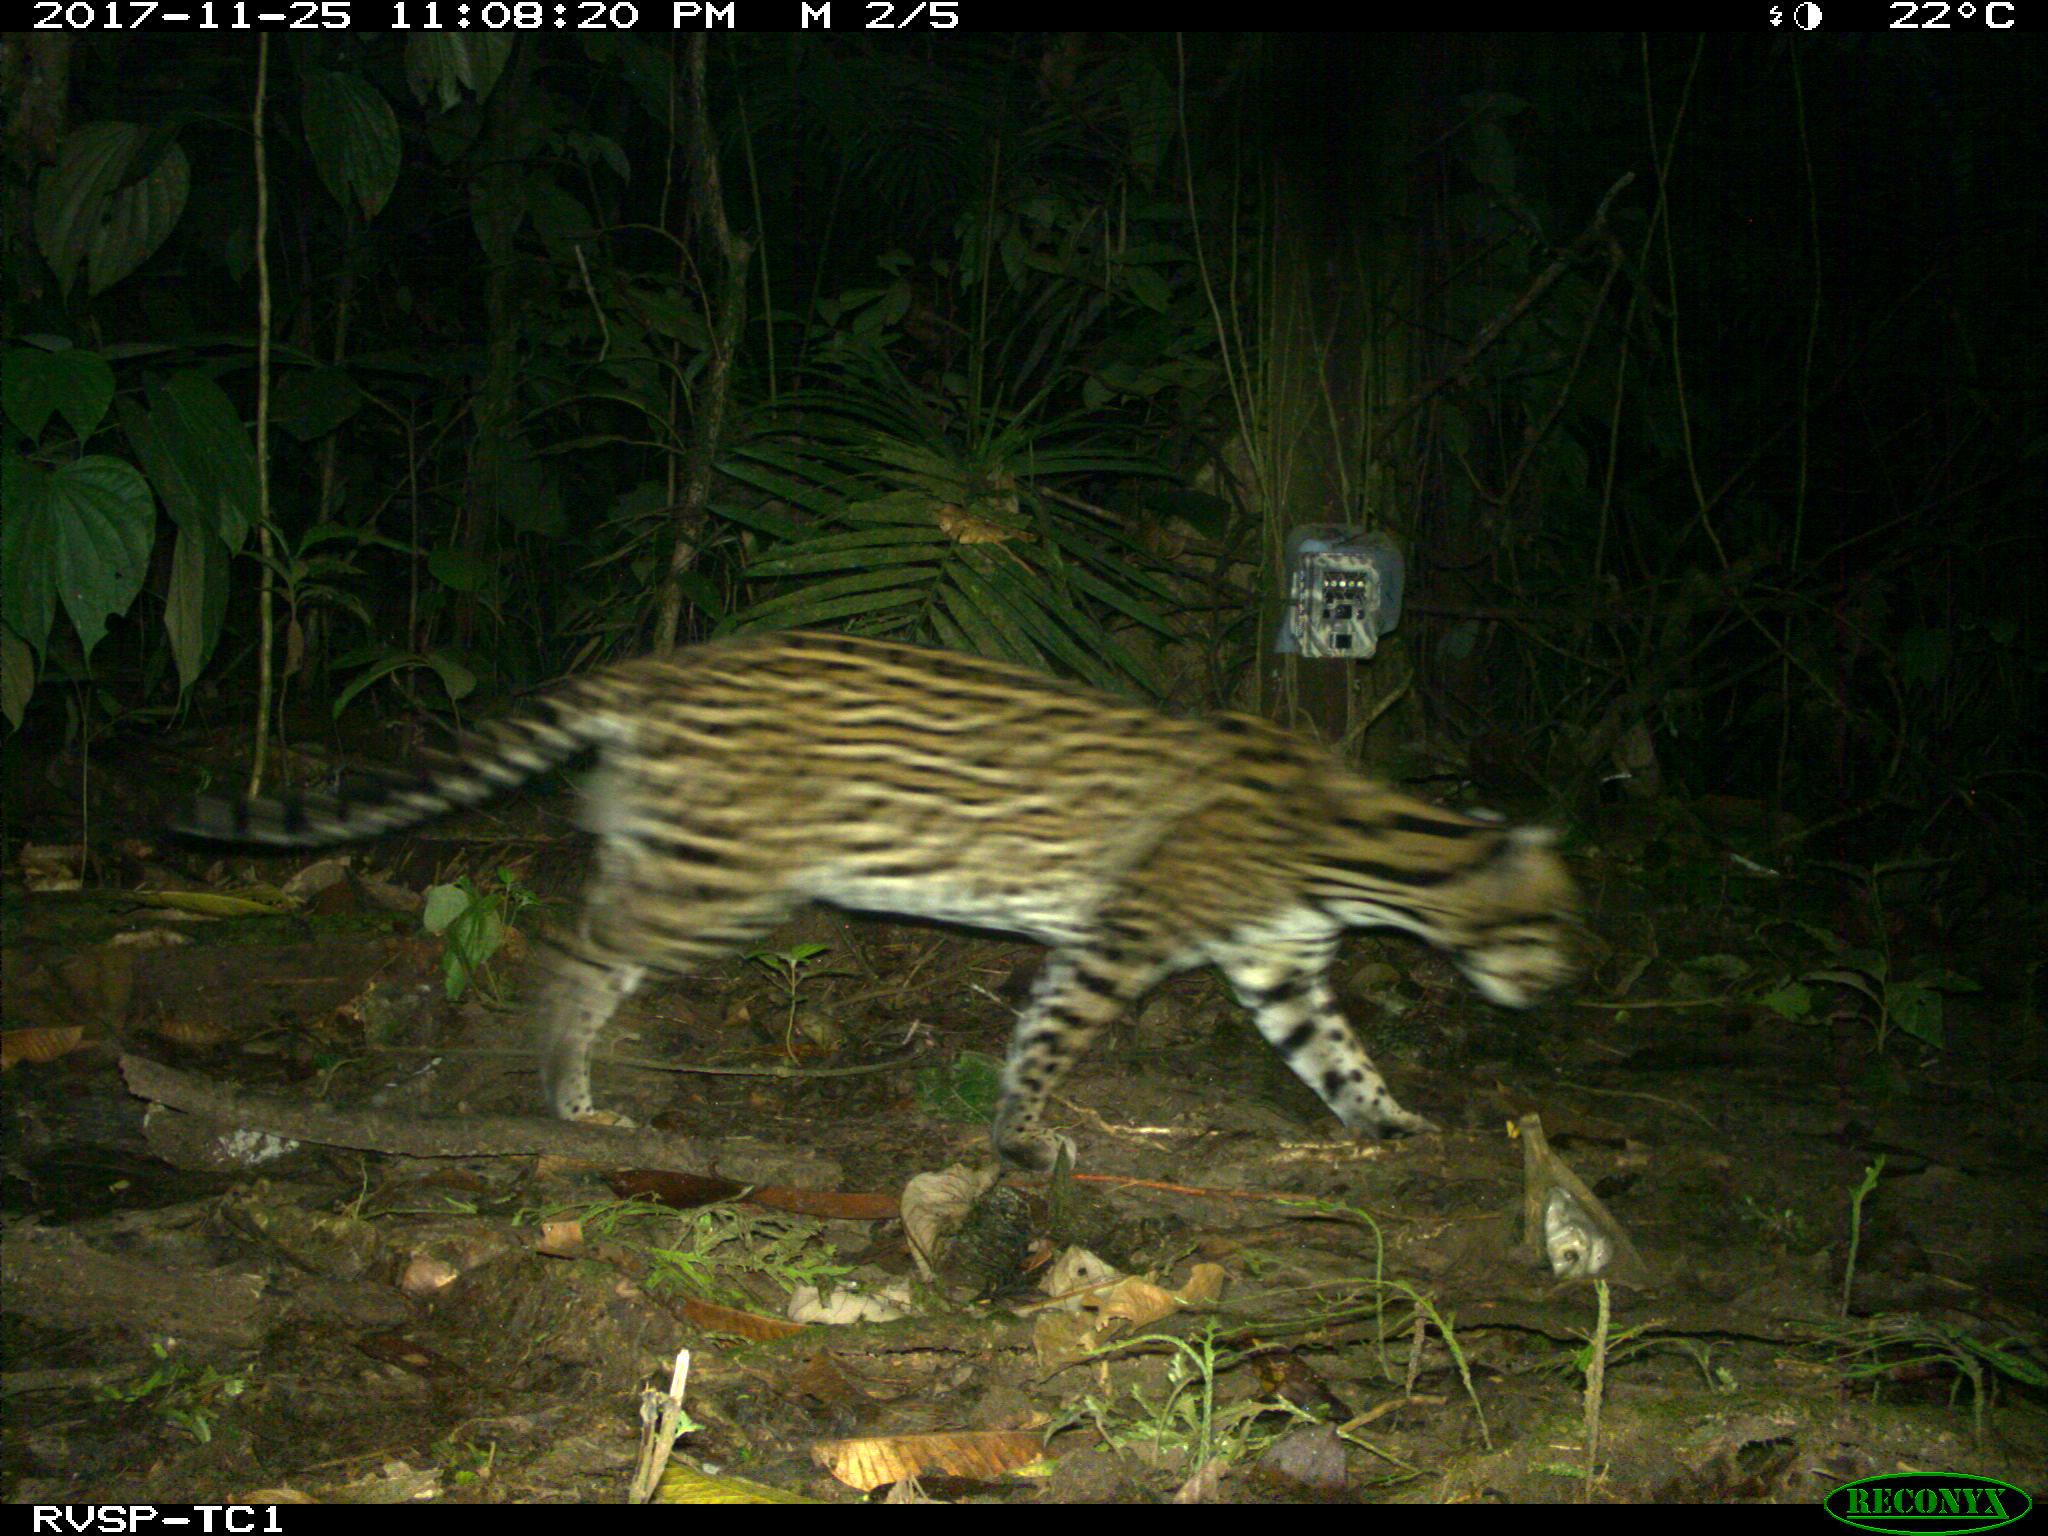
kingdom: Animalia
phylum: Chordata
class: Mammalia
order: Carnivora
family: Felidae
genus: Leopardus
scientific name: Leopardus pardalis
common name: Ocelot
